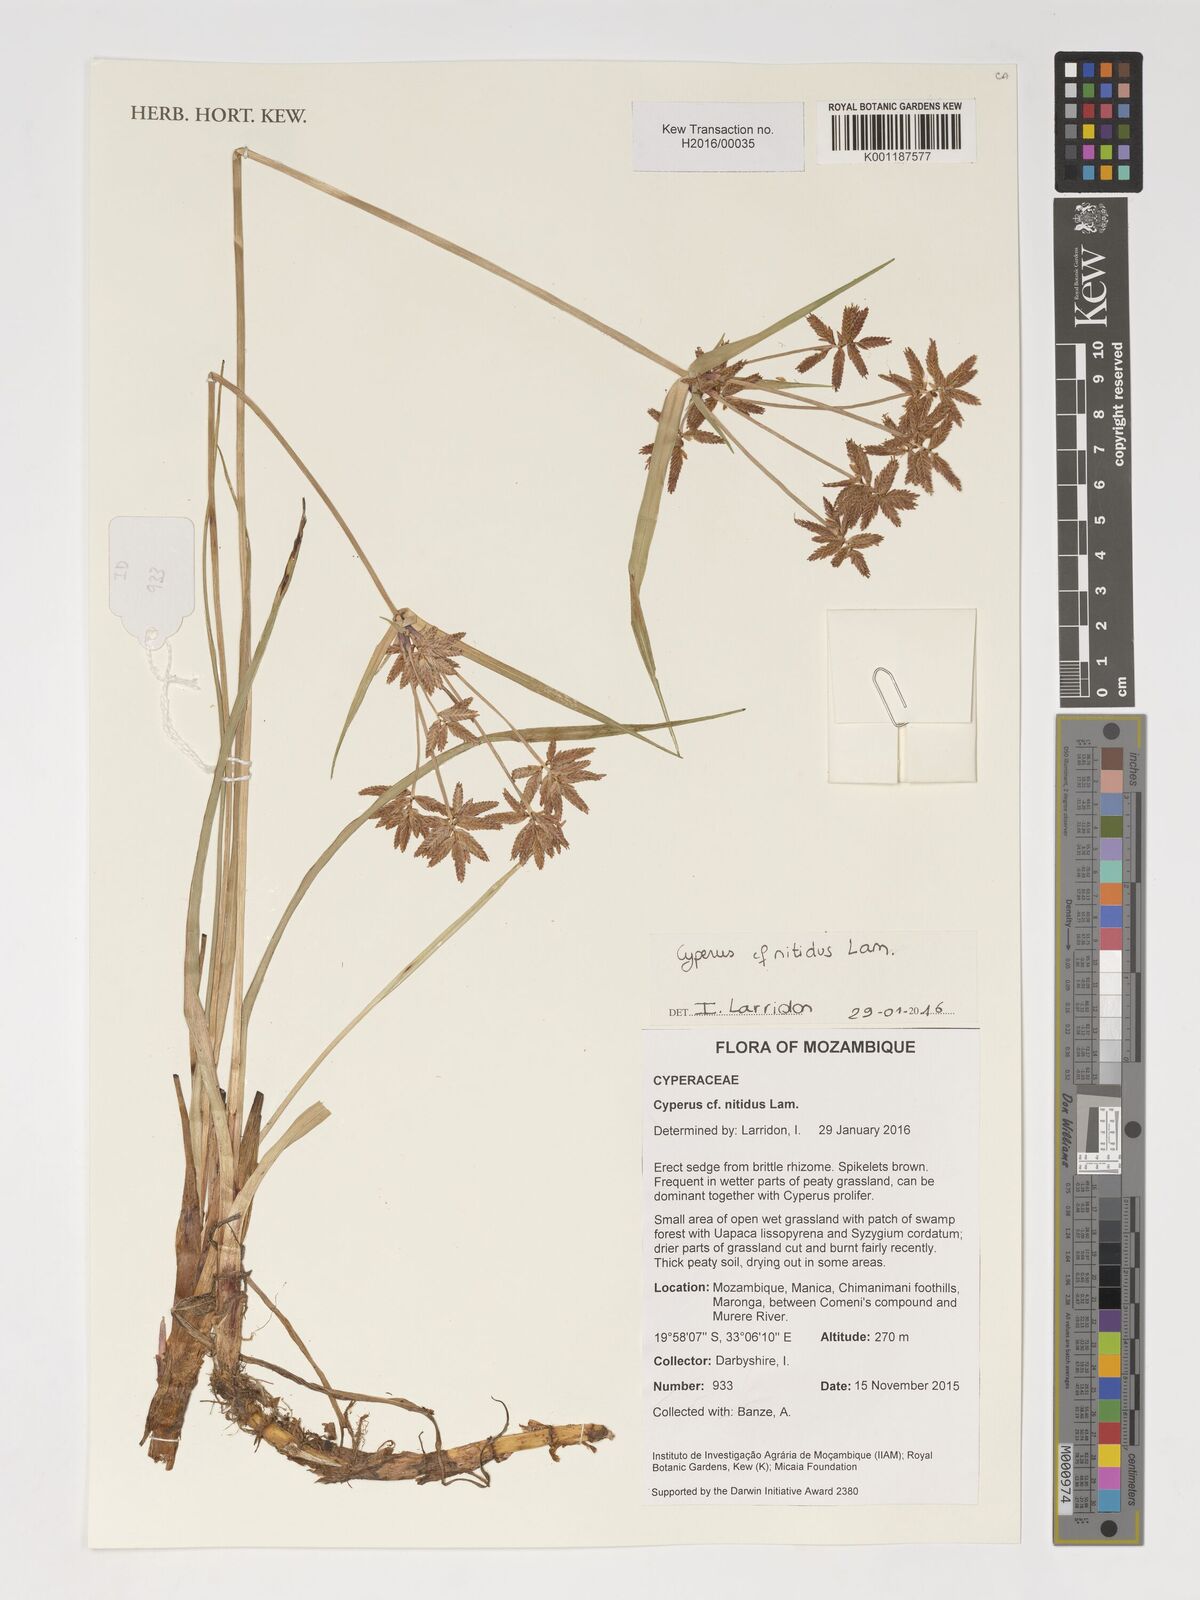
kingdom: Plantae
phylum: Tracheophyta
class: Liliopsida
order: Poales
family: Cyperaceae
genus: Cyperus
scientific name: Cyperus nitidus
